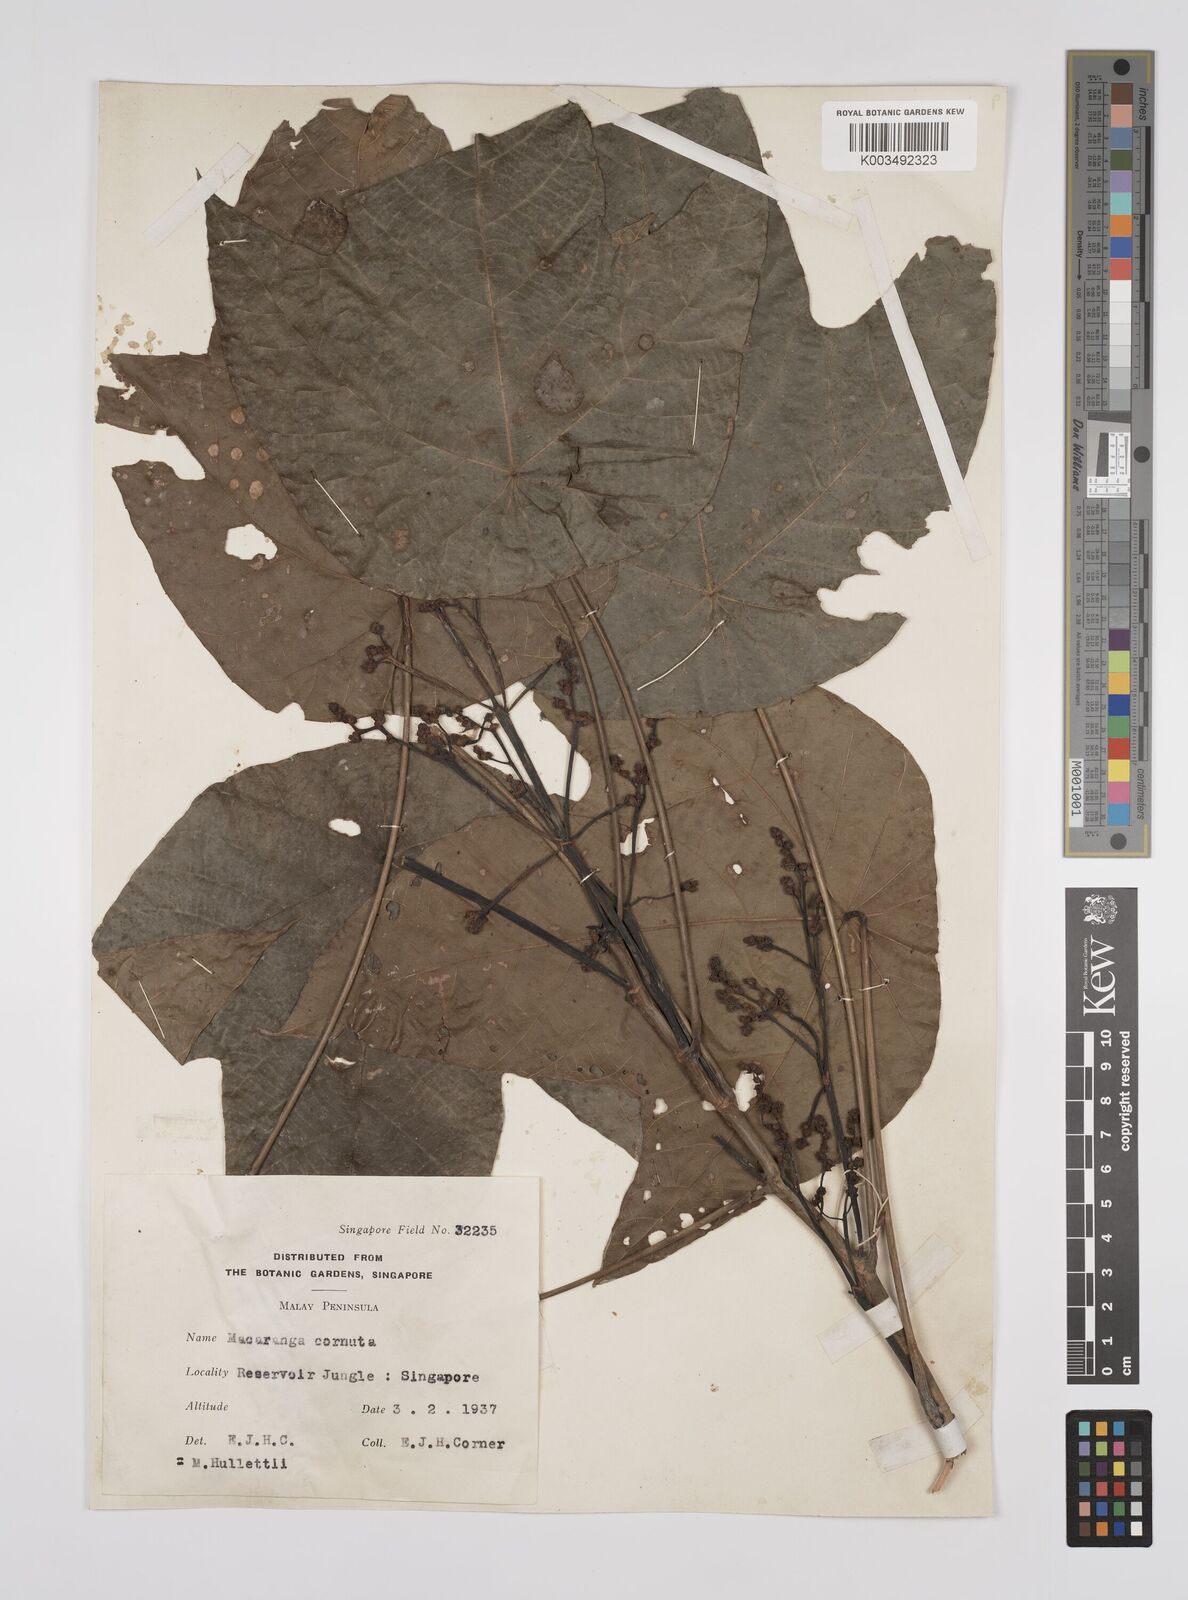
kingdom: Plantae
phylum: Tracheophyta
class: Magnoliopsida
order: Malpighiales
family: Euphorbiaceae
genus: Macaranga
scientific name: Macaranga hullettii
